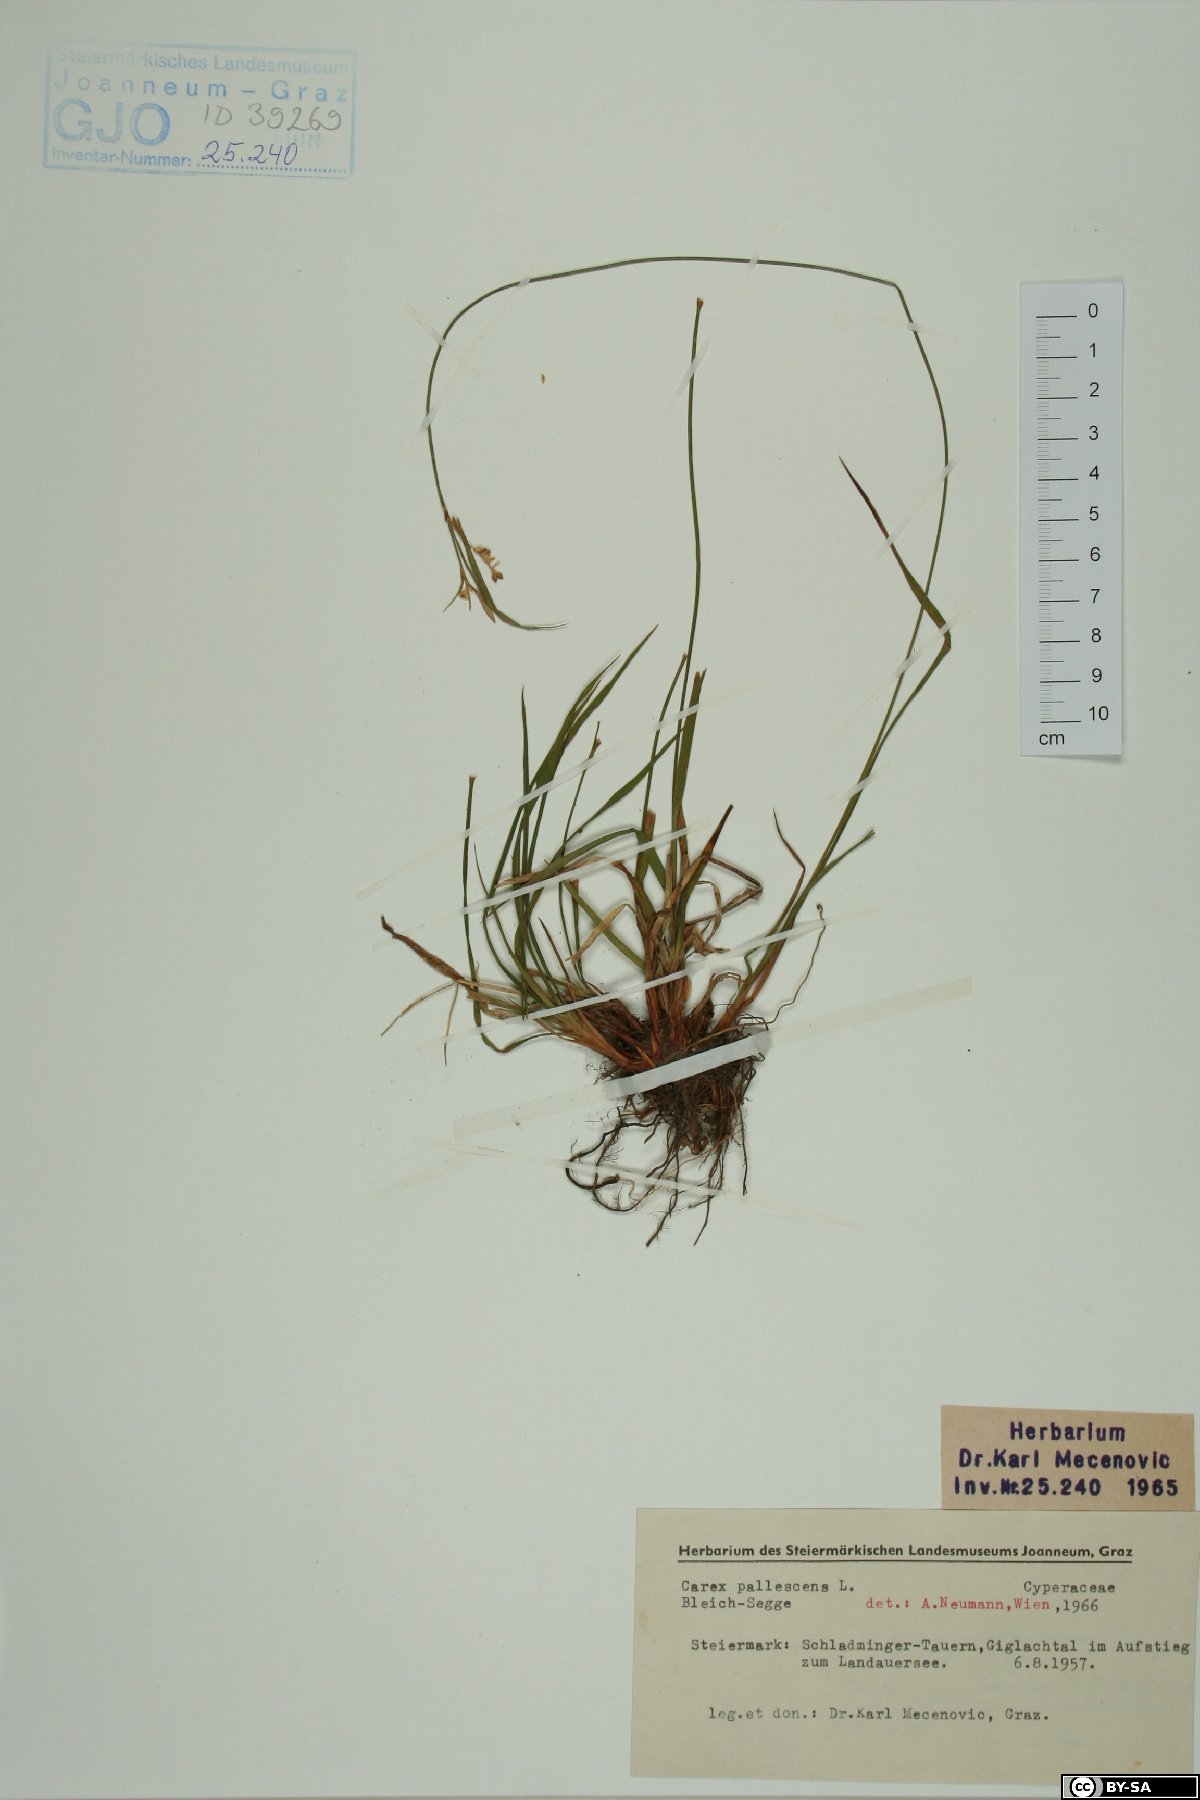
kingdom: Plantae
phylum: Tracheophyta
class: Liliopsida
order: Poales
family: Cyperaceae
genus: Carex
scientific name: Carex pallescens
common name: Pale sedge
